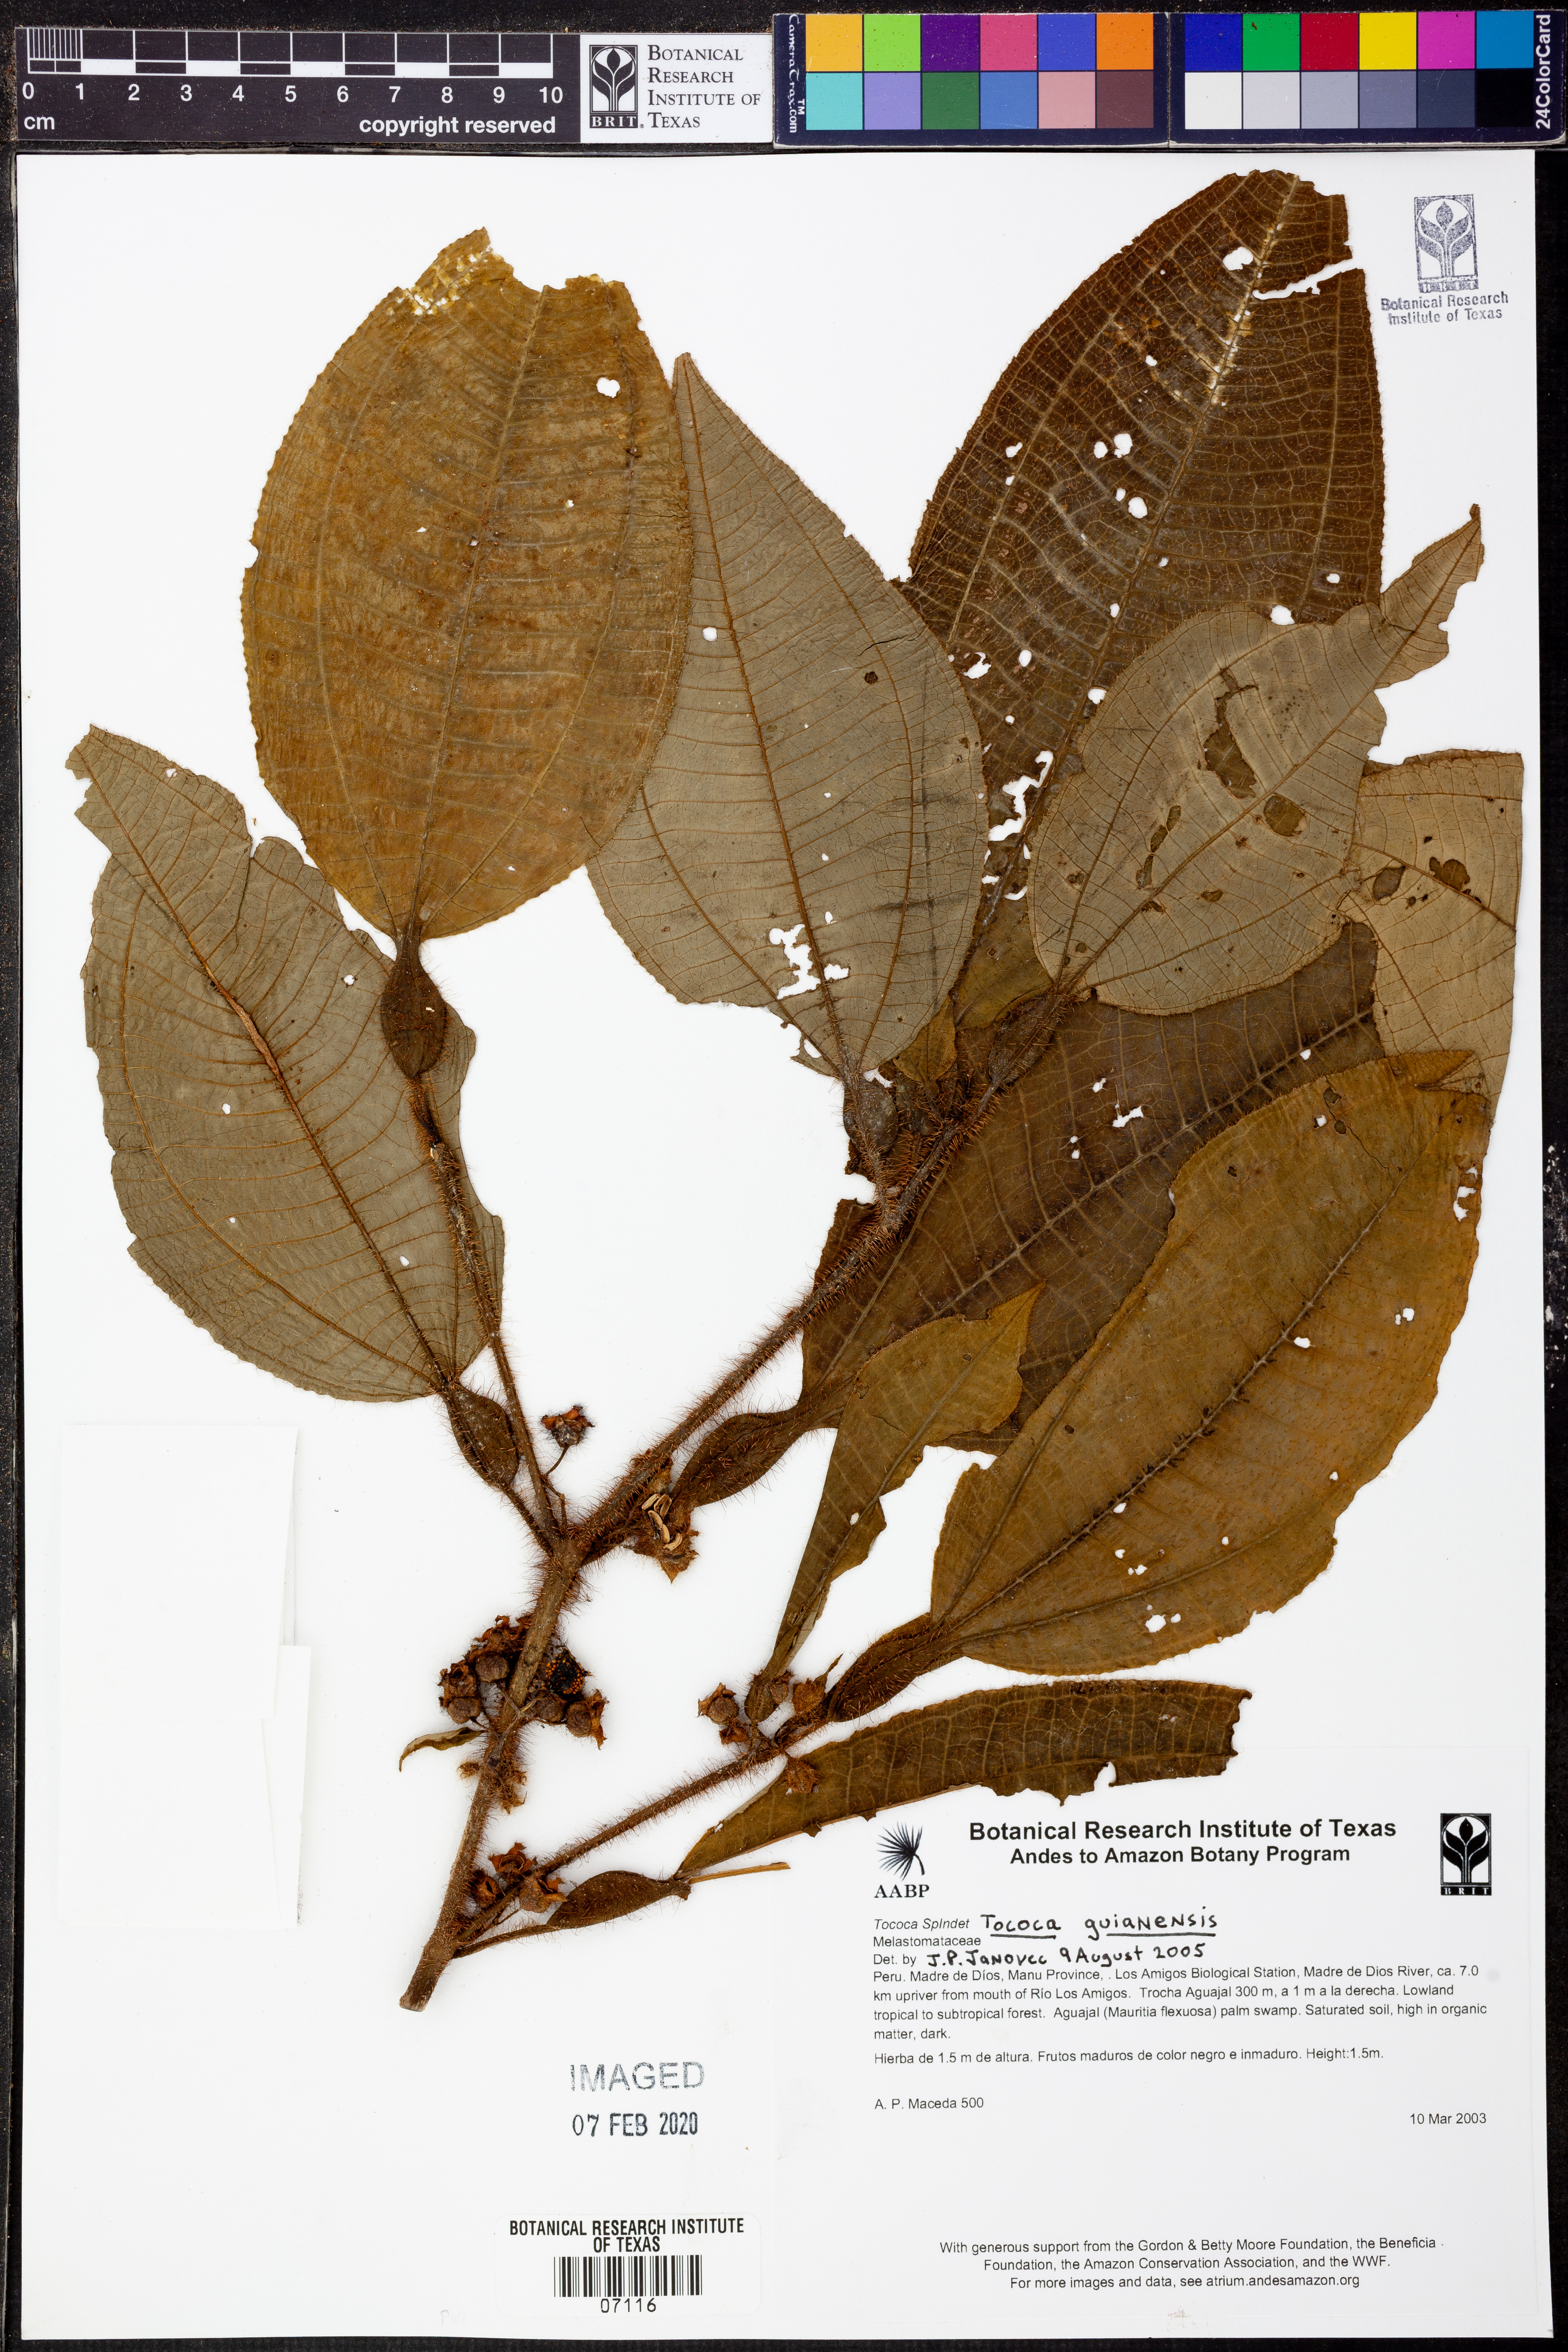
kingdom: Plantae
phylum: Tracheophyta
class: Magnoliopsida
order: Myrtales
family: Melastomataceae
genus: Miconia
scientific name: Miconia tococa
